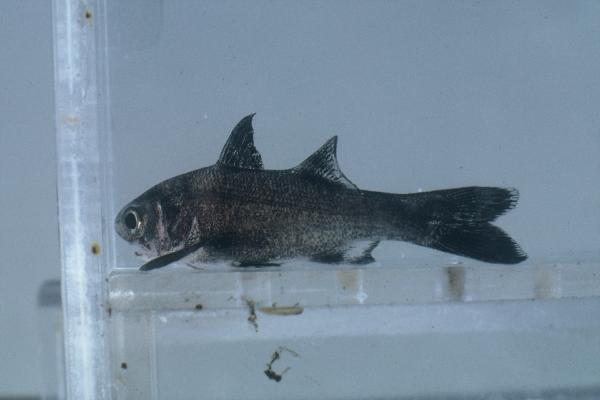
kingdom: Animalia
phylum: Chordata
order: Perciformes
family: Polynemidae
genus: Polydactylus
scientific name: Polydactylus plebeius
